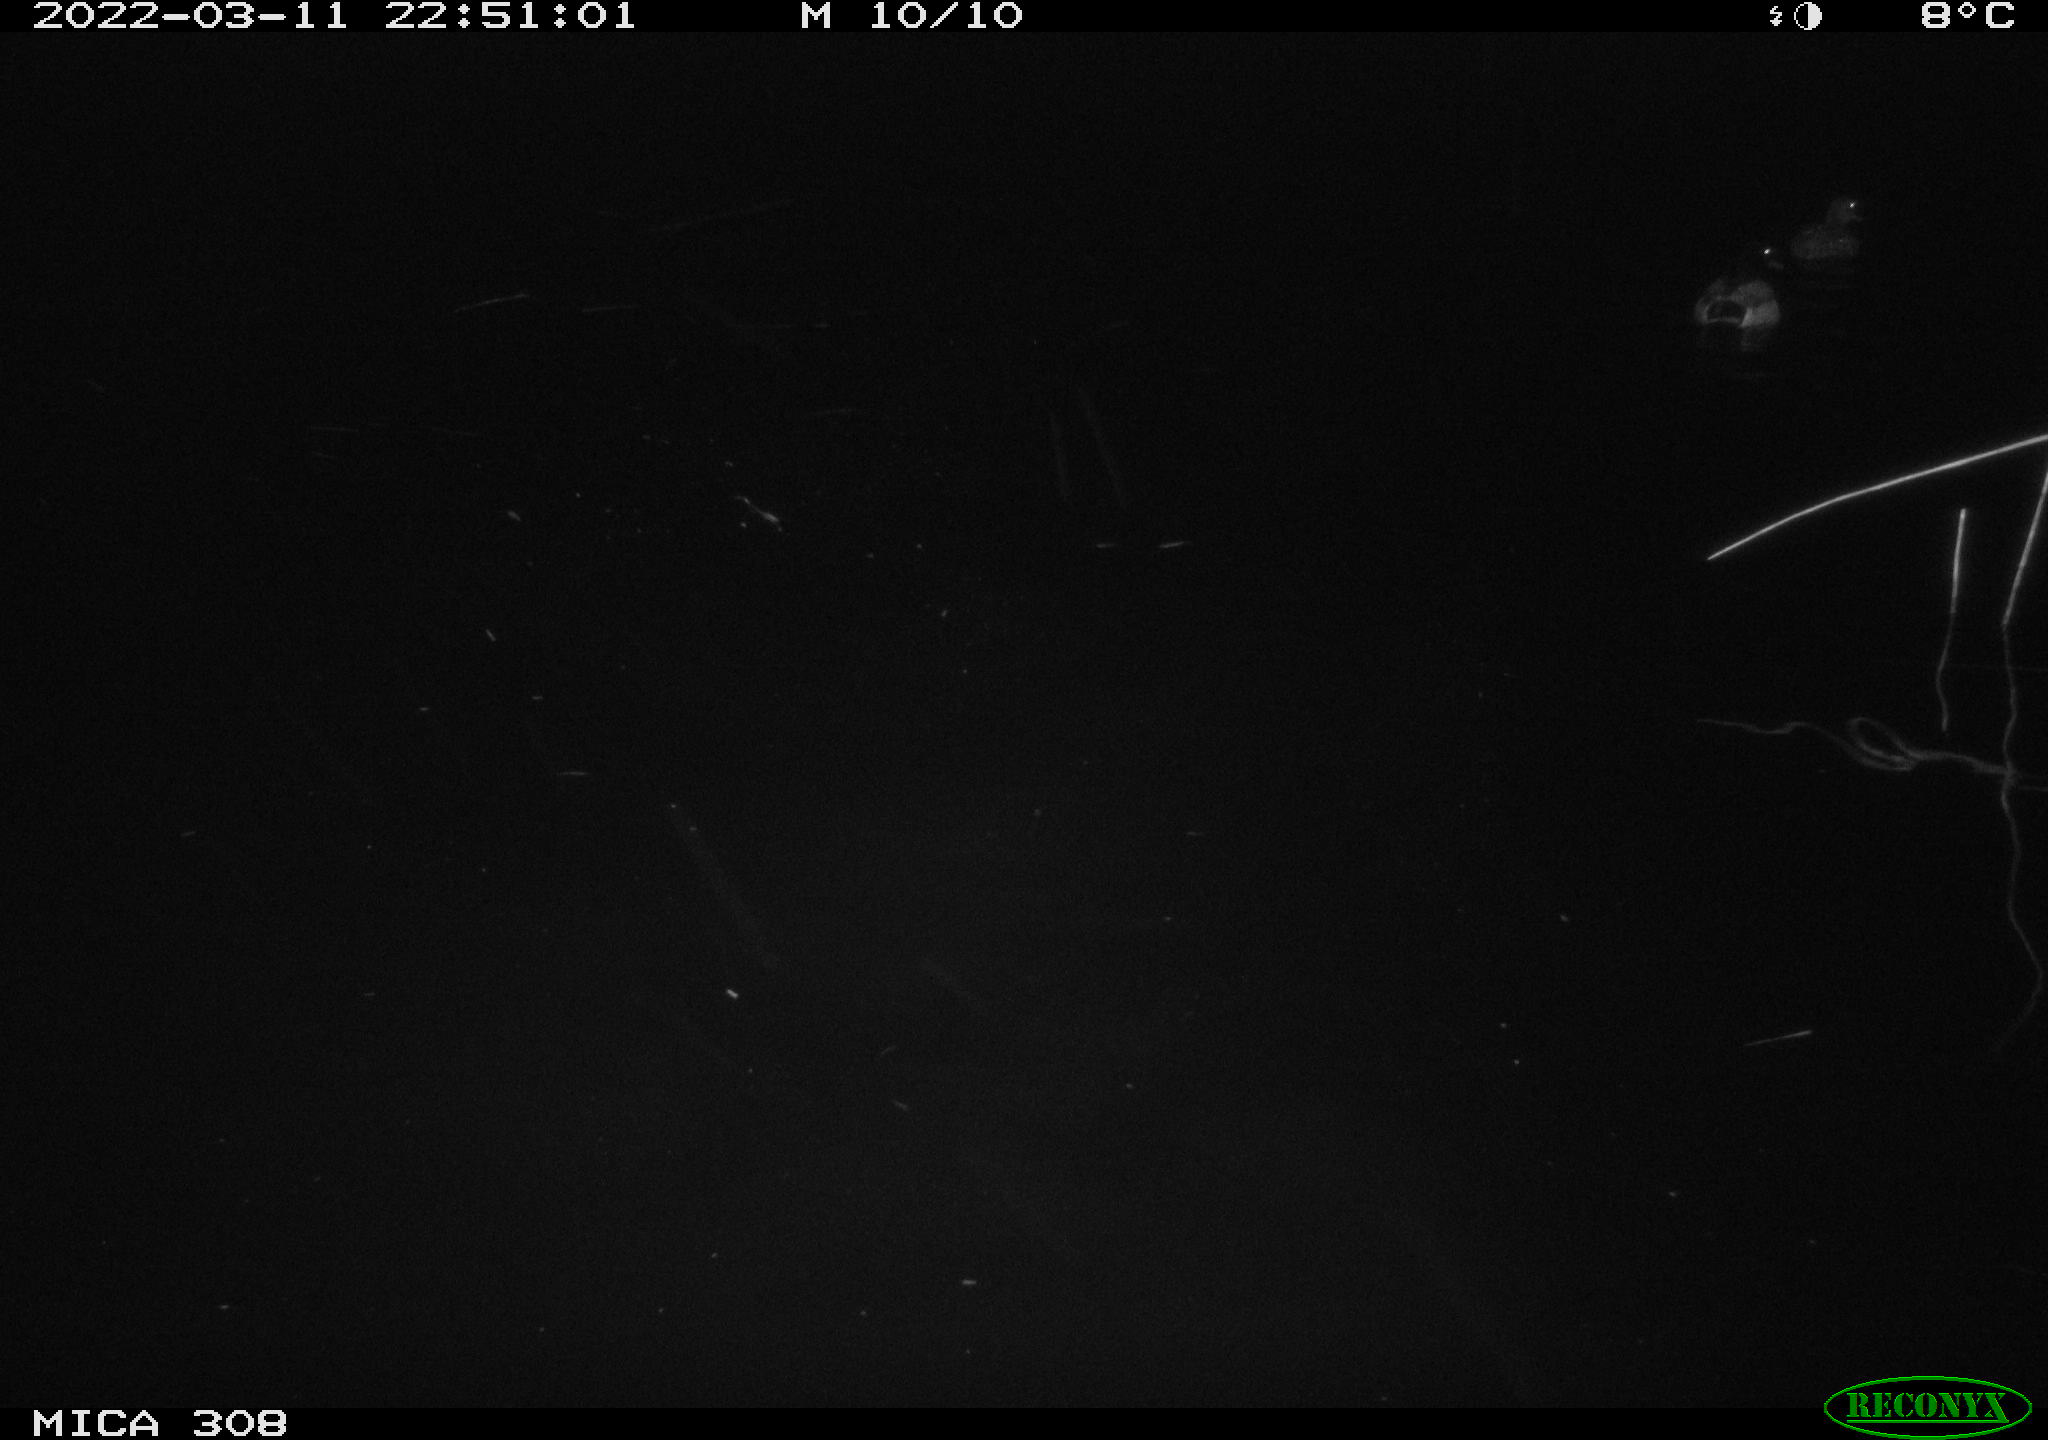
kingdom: Animalia
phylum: Chordata
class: Aves
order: Anseriformes
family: Anatidae
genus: Anas
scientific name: Anas platyrhynchos
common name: Mallard
